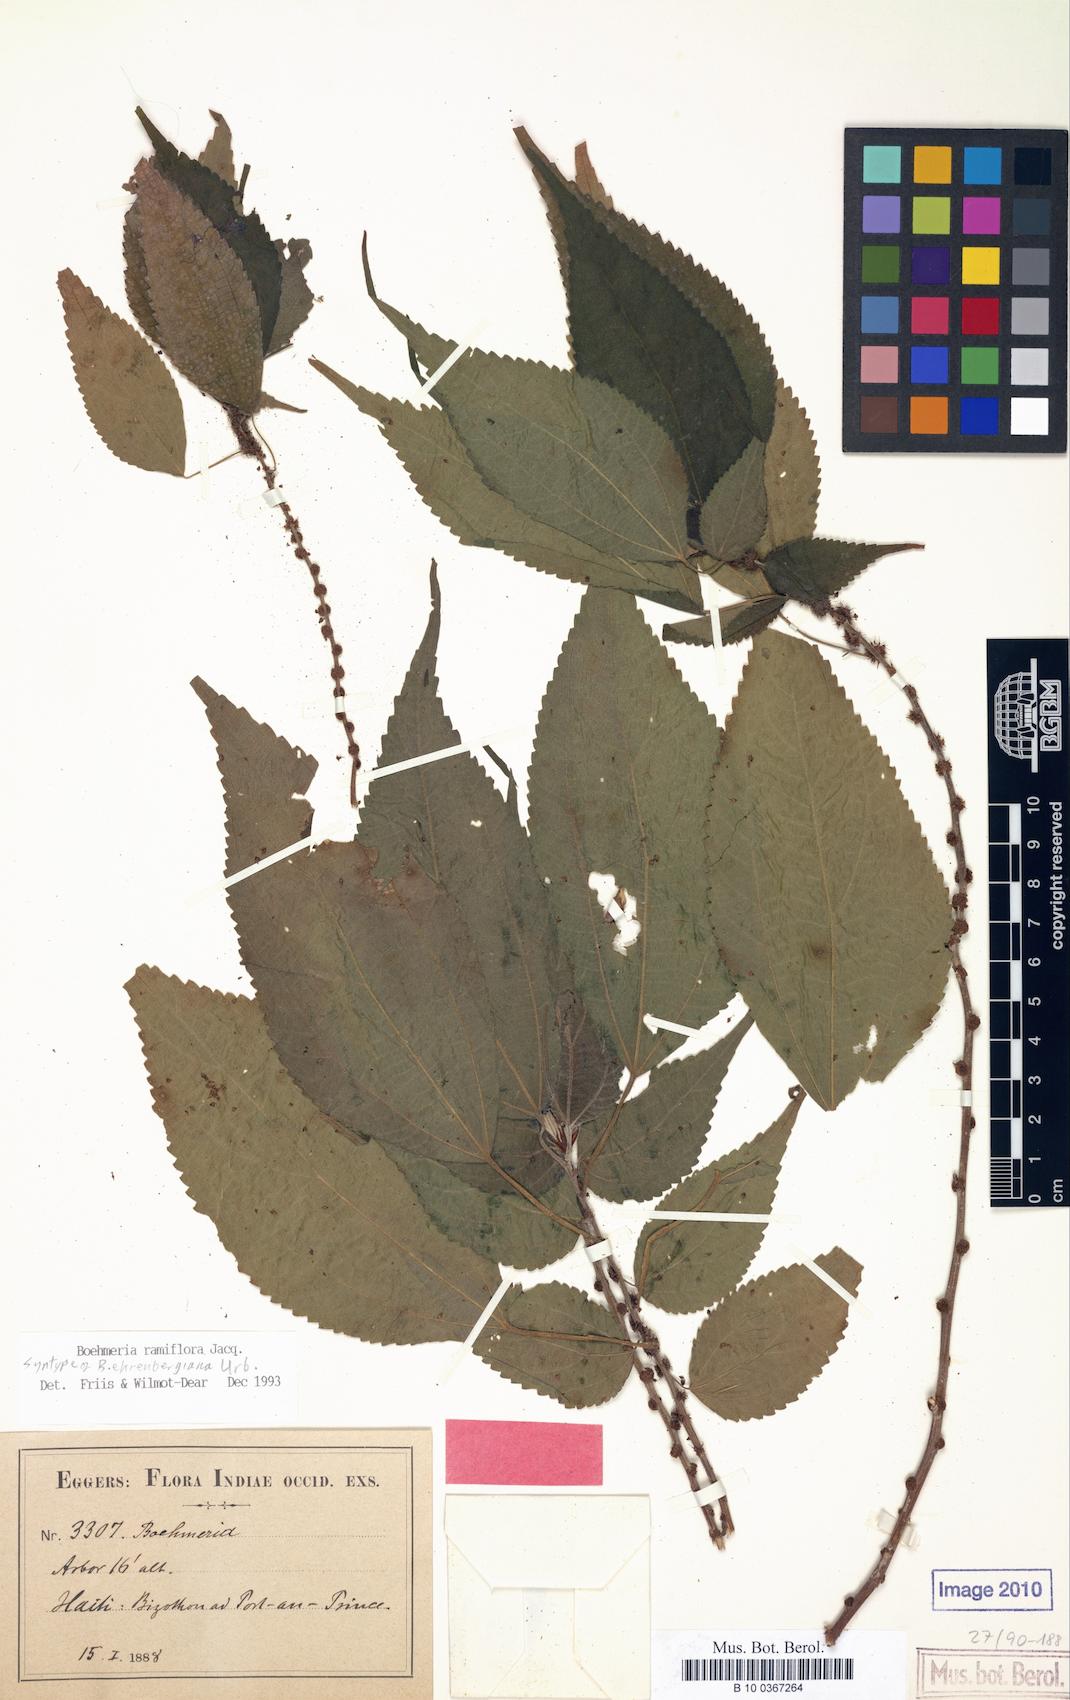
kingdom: Plantae
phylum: Tracheophyta
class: Magnoliopsida
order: Rosales
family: Urticaceae
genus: Boehmeria
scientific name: Boehmeria ramiflora
